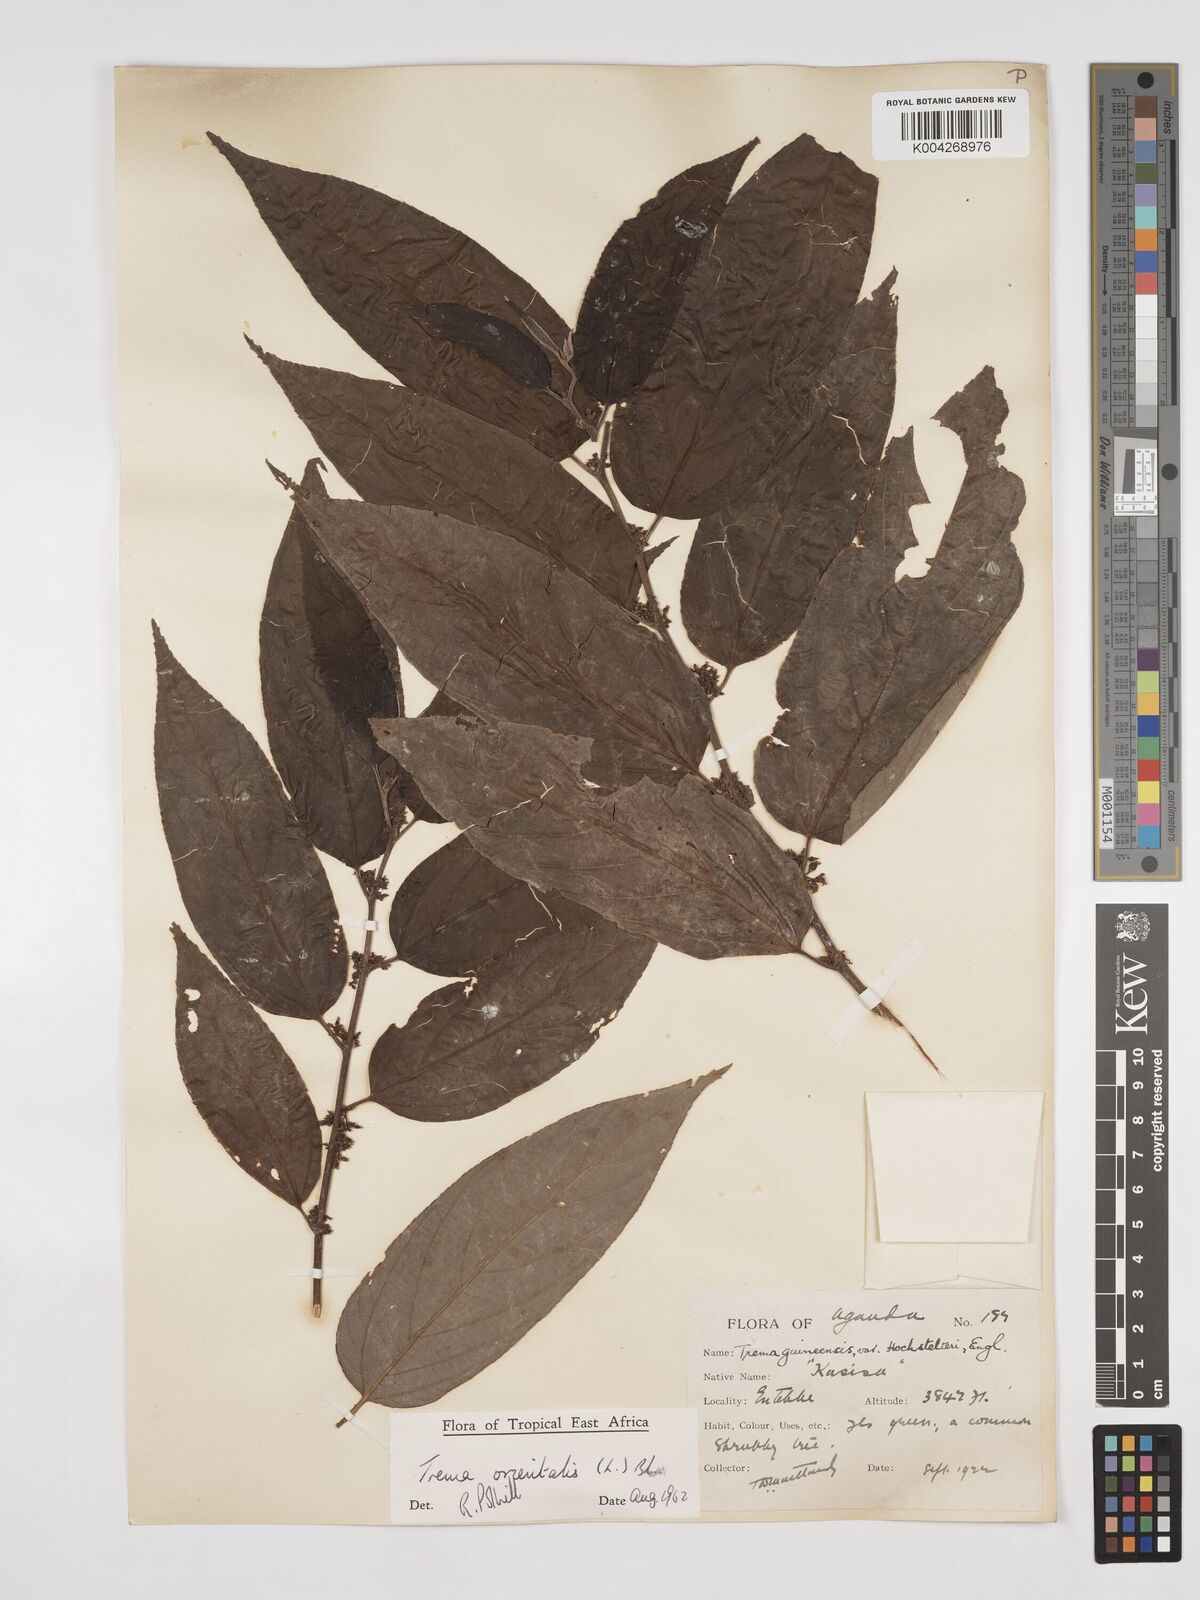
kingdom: Plantae
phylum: Tracheophyta
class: Magnoliopsida
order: Rosales
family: Cannabaceae
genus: Trema
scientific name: Trema orientale
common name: Indian charcoal tree
